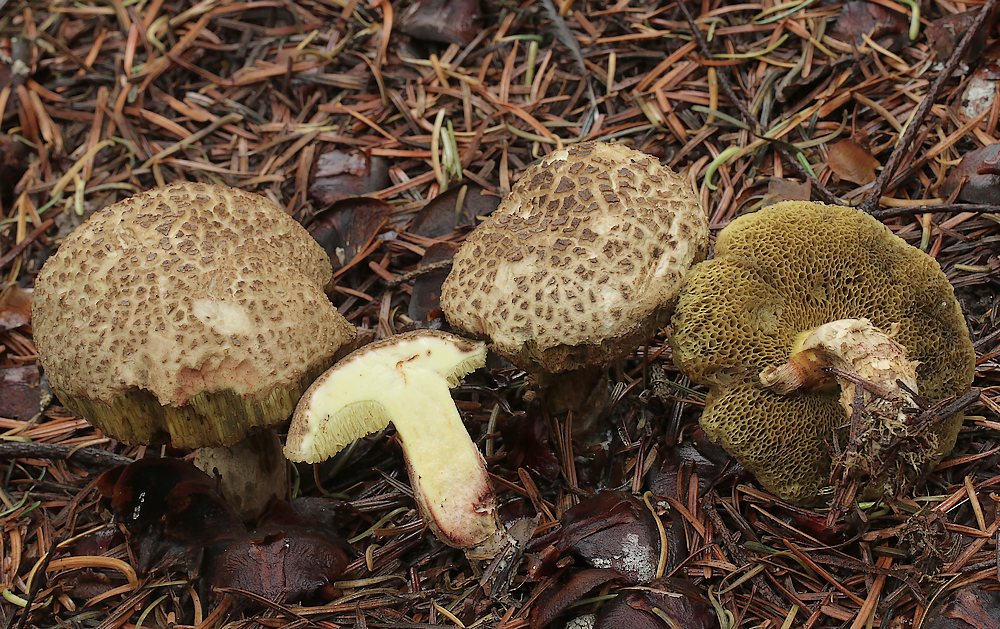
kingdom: Fungi
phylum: Basidiomycota
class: Agaricomycetes
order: Boletales
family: Boletaceae
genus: Xerocomellus
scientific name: Xerocomellus porosporus
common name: hvidsprukken rørhat
